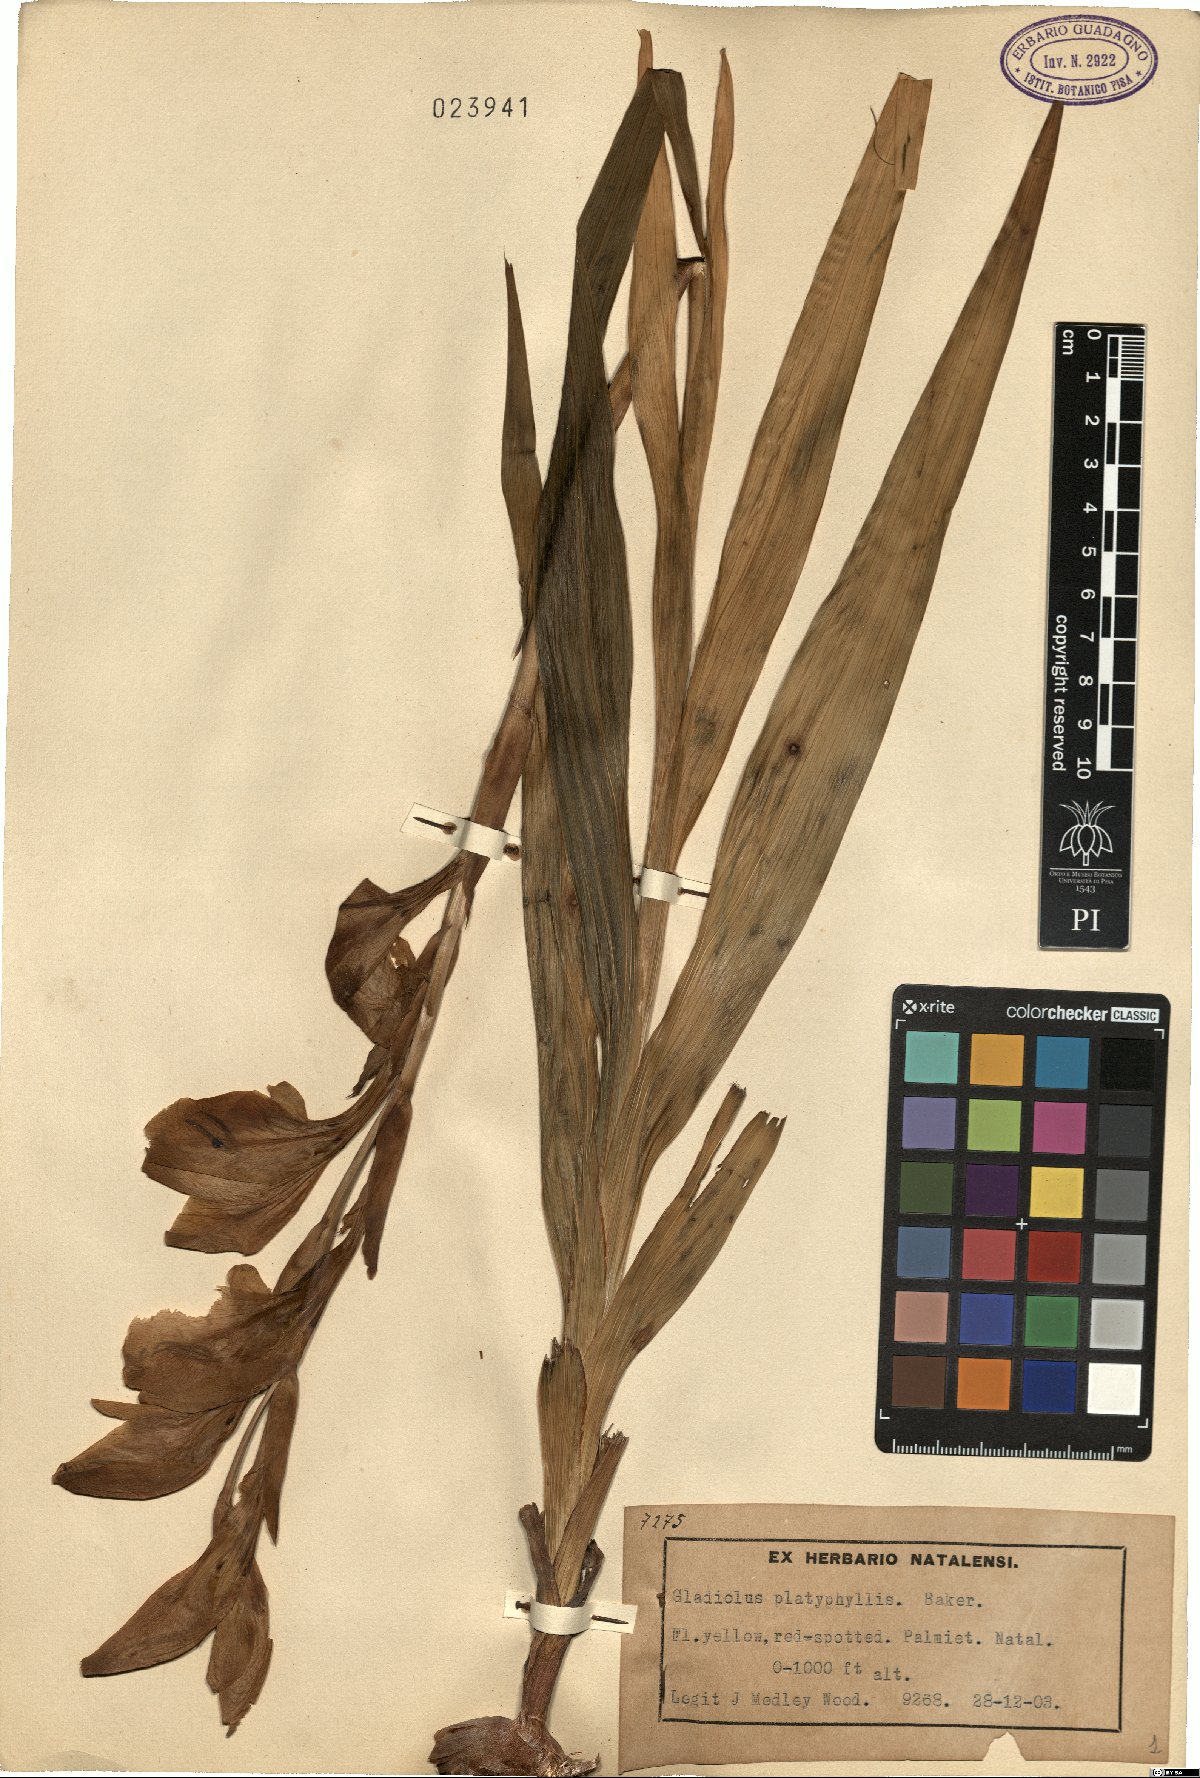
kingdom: Plantae
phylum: Tracheophyta
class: Liliopsida
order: Asparagales
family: Iridaceae
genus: Gladiolus
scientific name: Gladiolus dalenii
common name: Cornflag
